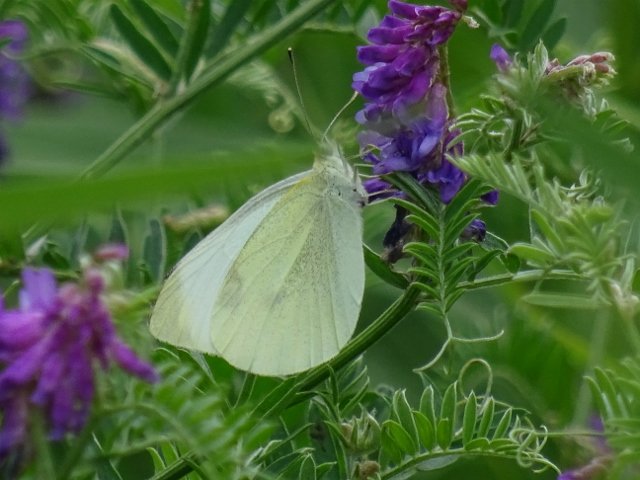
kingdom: Animalia
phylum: Arthropoda
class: Insecta
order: Lepidoptera
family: Pieridae
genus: Pieris
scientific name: Pieris rapae
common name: Cabbage White
